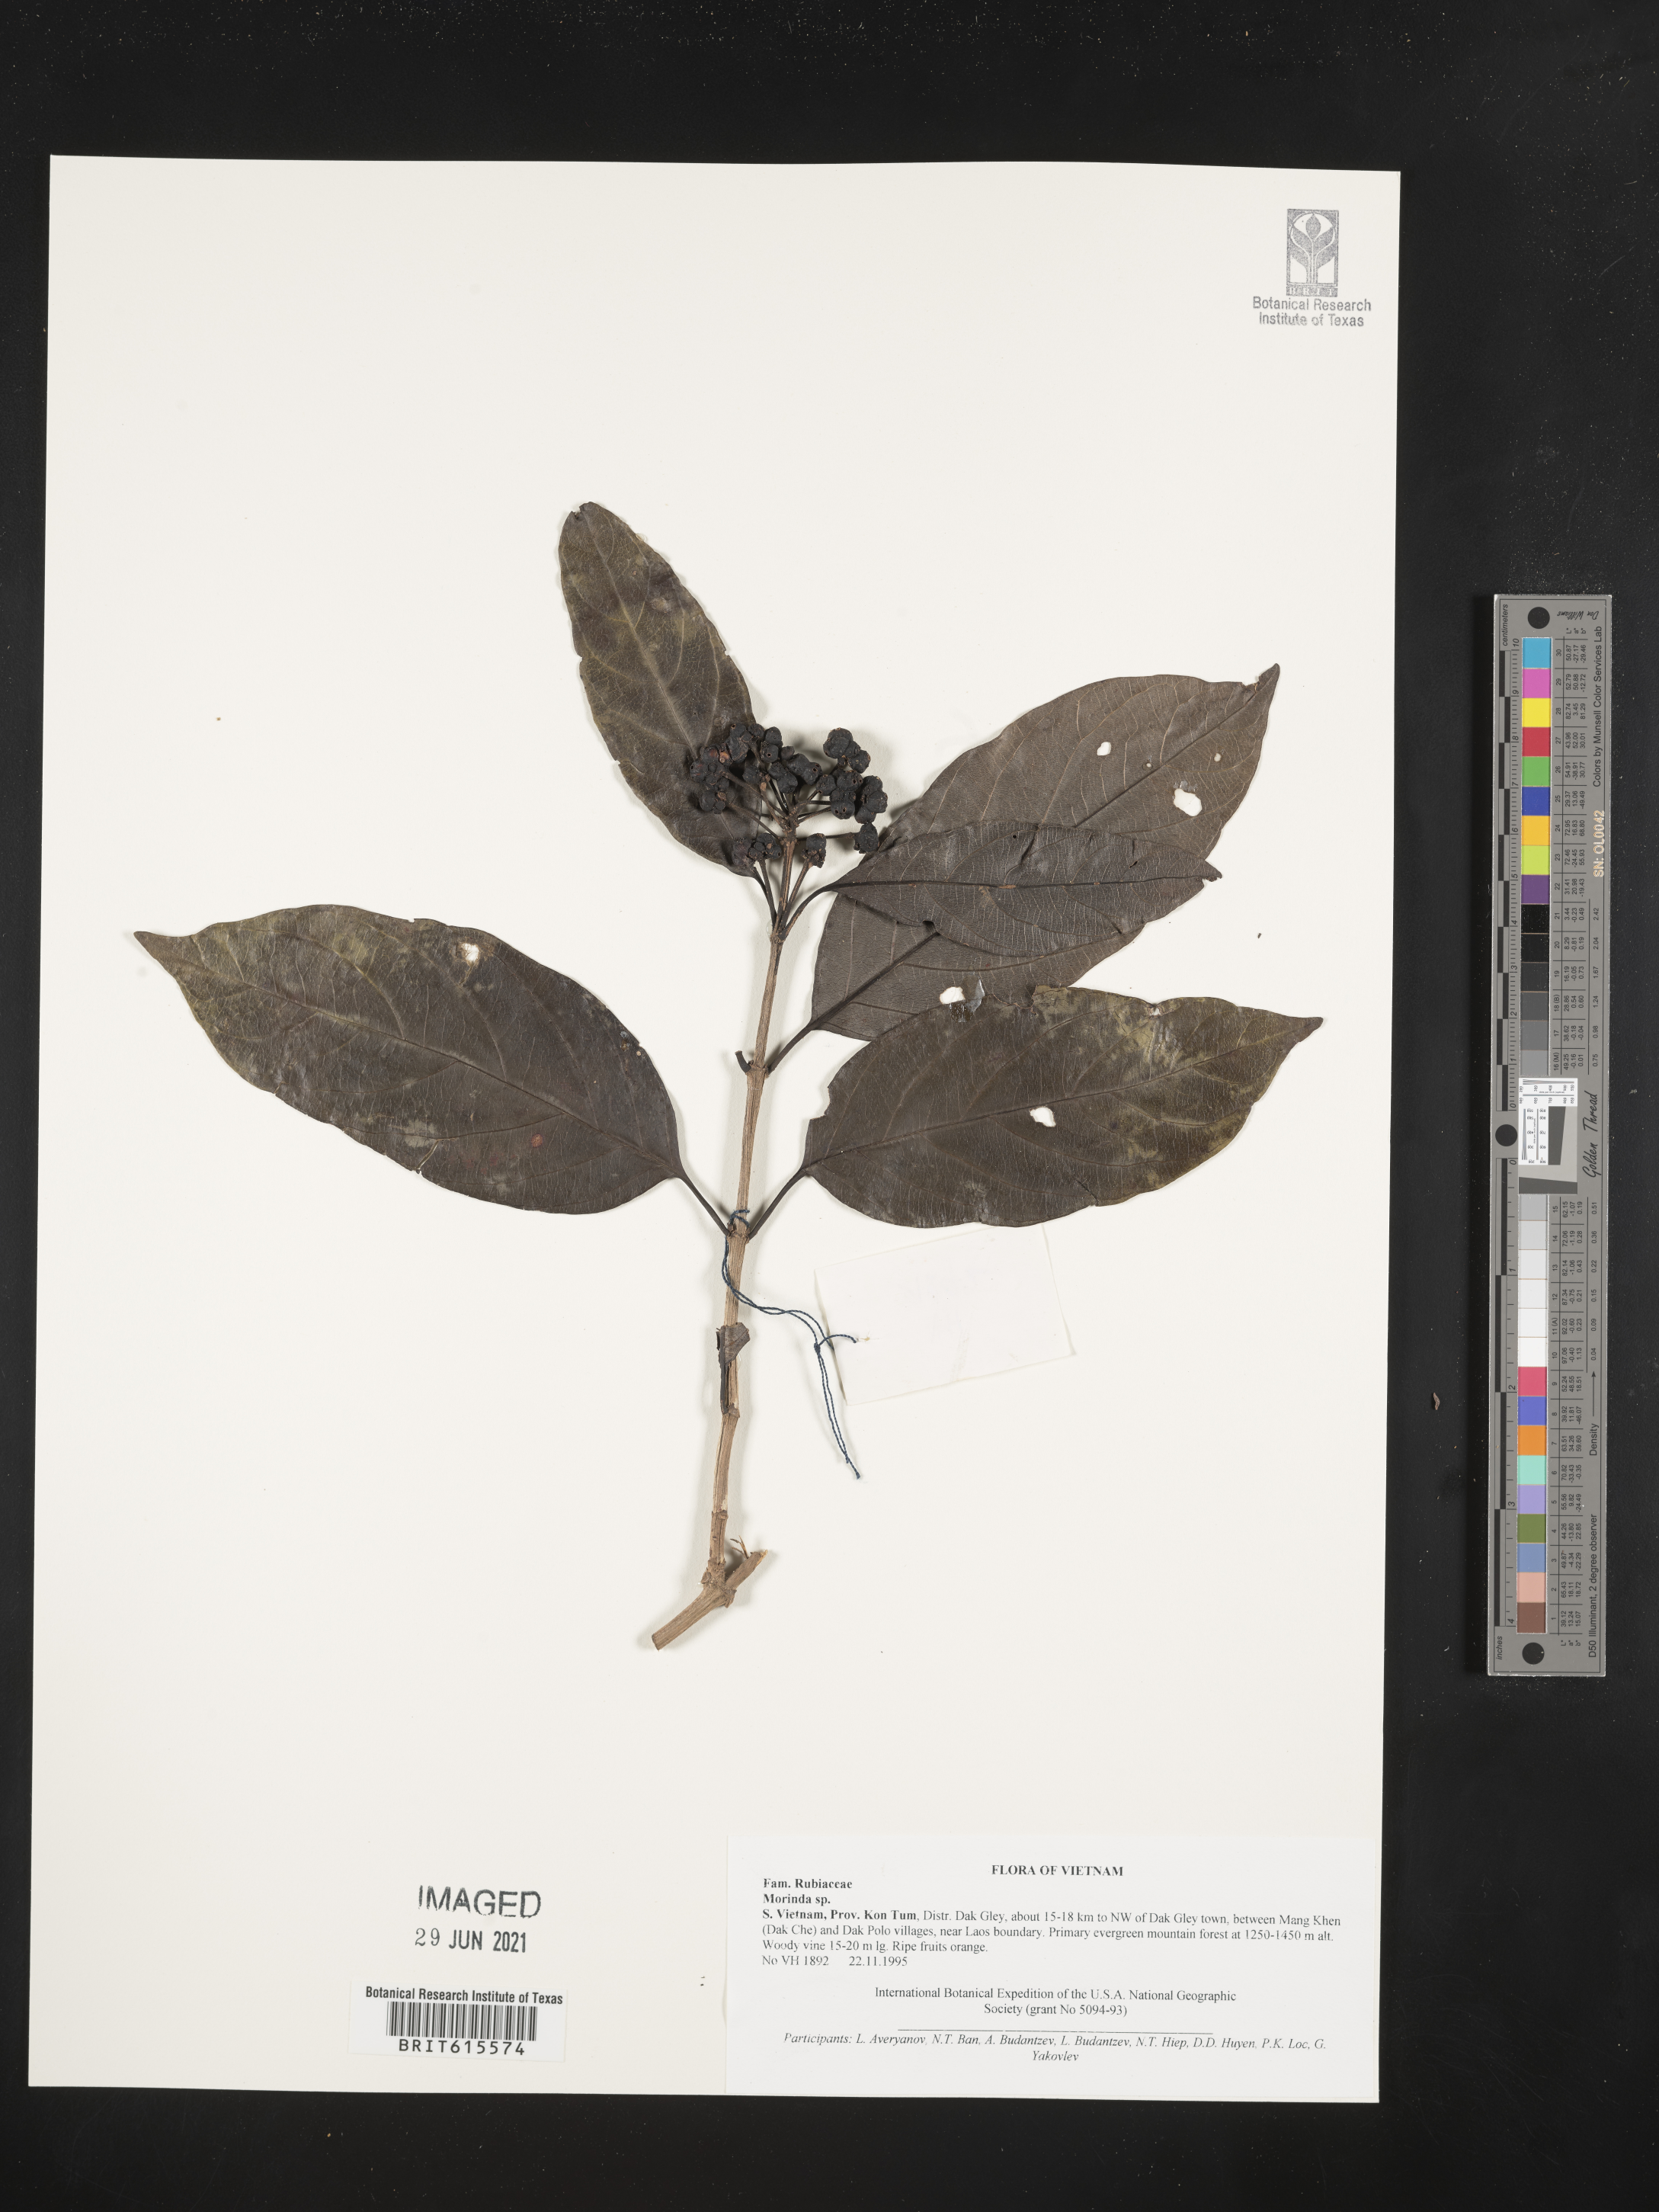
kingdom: Plantae
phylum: Tracheophyta
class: Magnoliopsida
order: Gentianales
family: Rubiaceae
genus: Morinda
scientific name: Morinda
